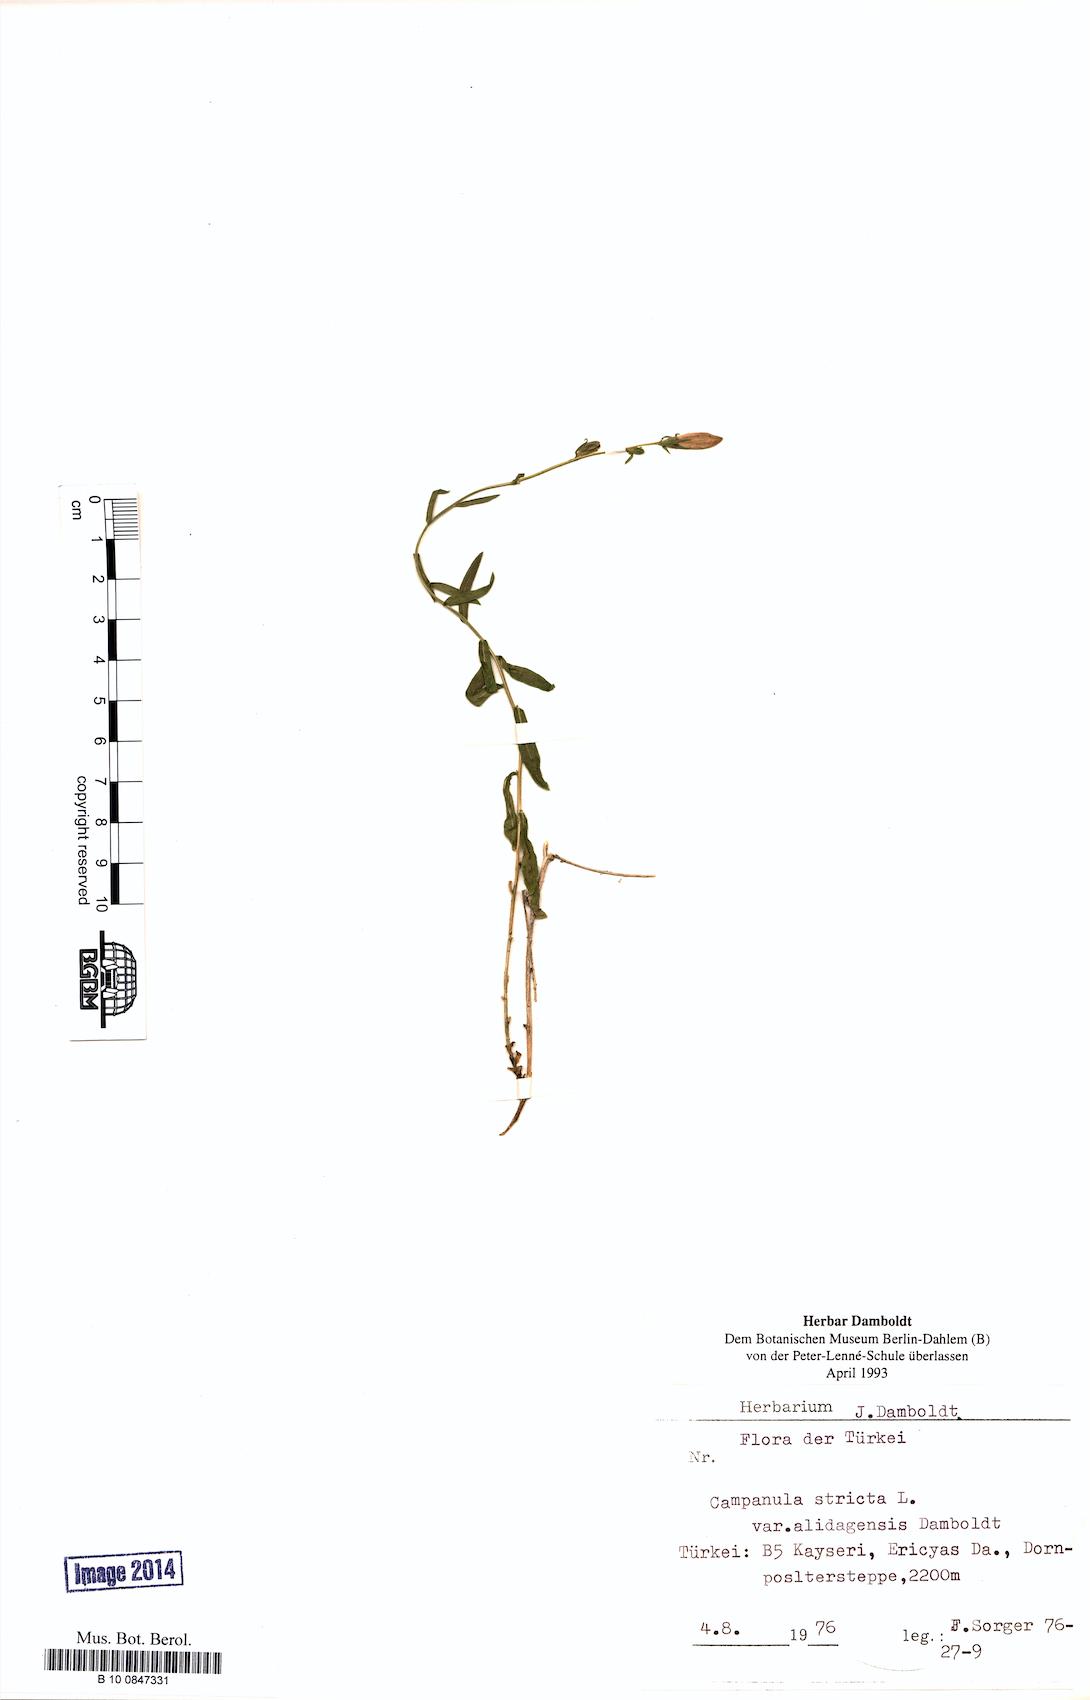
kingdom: Plantae
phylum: Tracheophyta
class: Magnoliopsida
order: Asterales
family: Campanulaceae
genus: Campanula
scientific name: Campanula stricta
